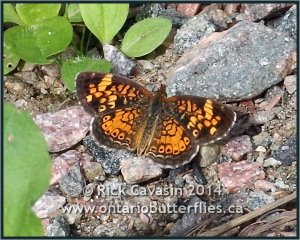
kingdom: Animalia
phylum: Arthropoda
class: Insecta
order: Lepidoptera
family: Nymphalidae
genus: Phyciodes
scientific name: Phyciodes tharos
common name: Pearl Crescent
